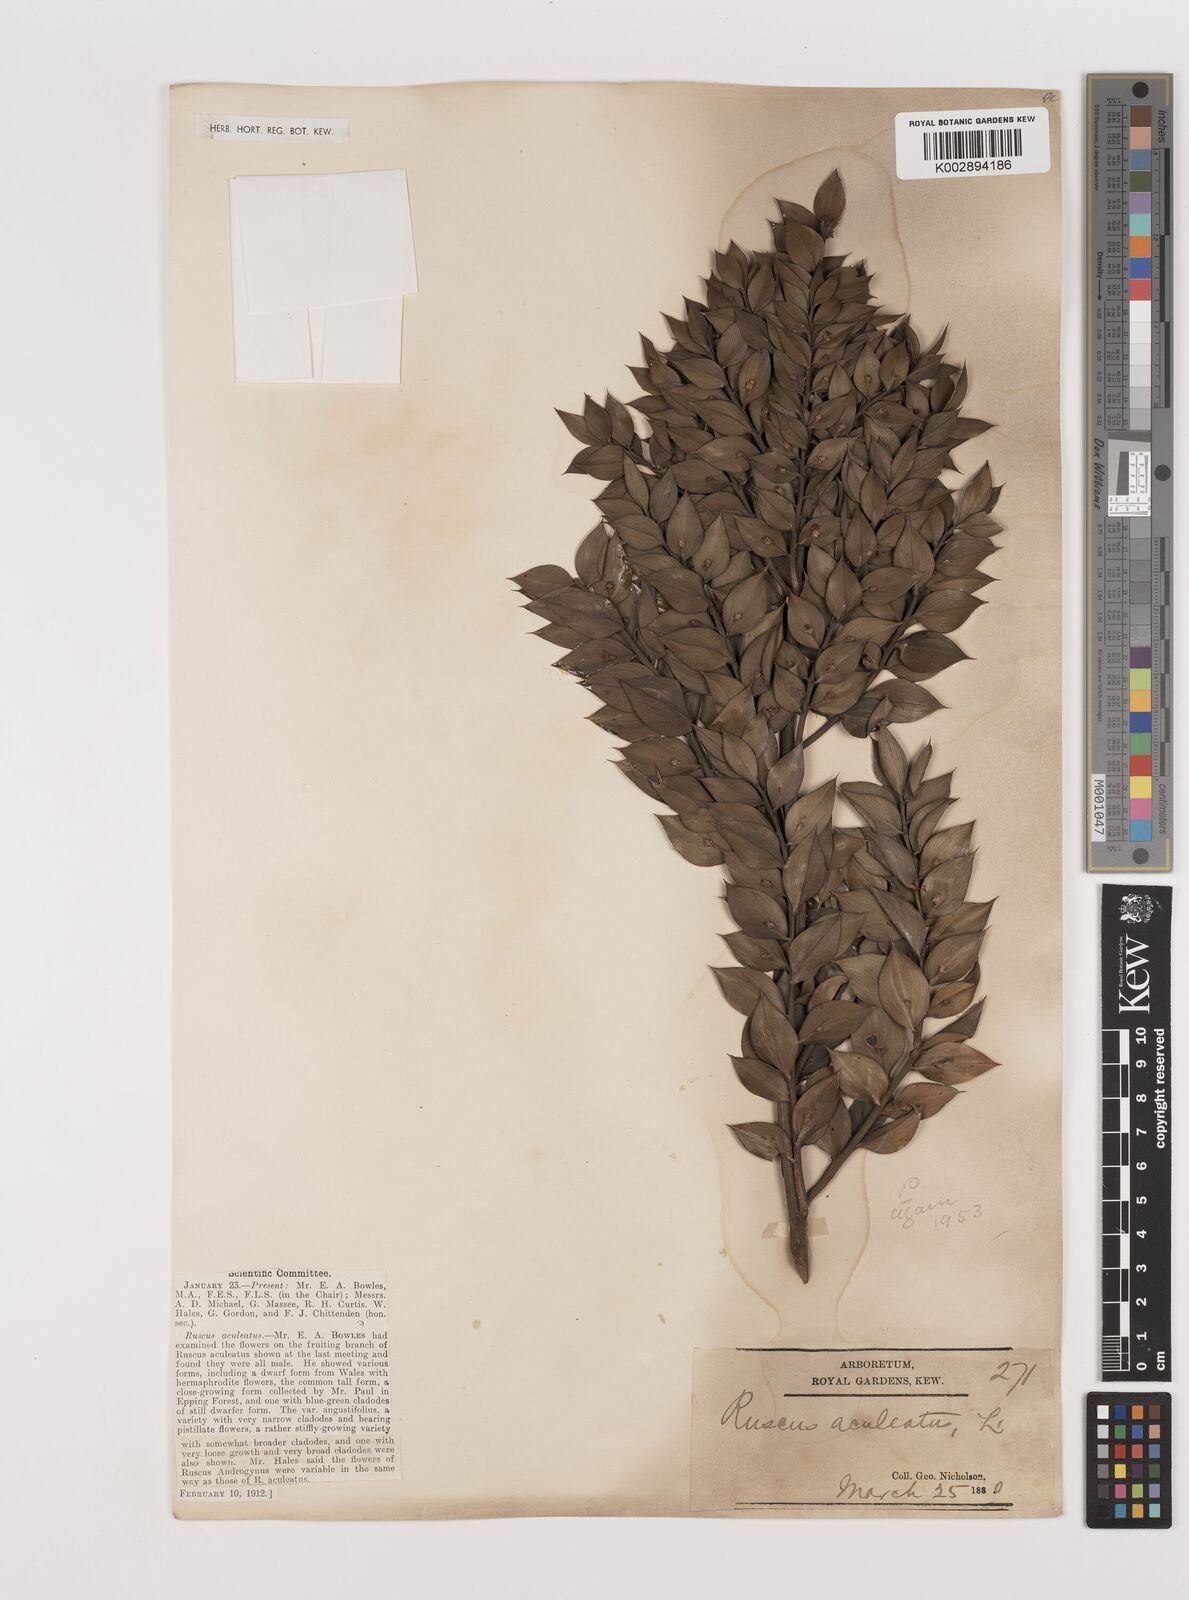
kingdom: Plantae
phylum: Tracheophyta
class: Liliopsida
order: Asparagales
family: Asparagaceae
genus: Ruscus
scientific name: Ruscus aculeatus
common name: Butcher's-broom
